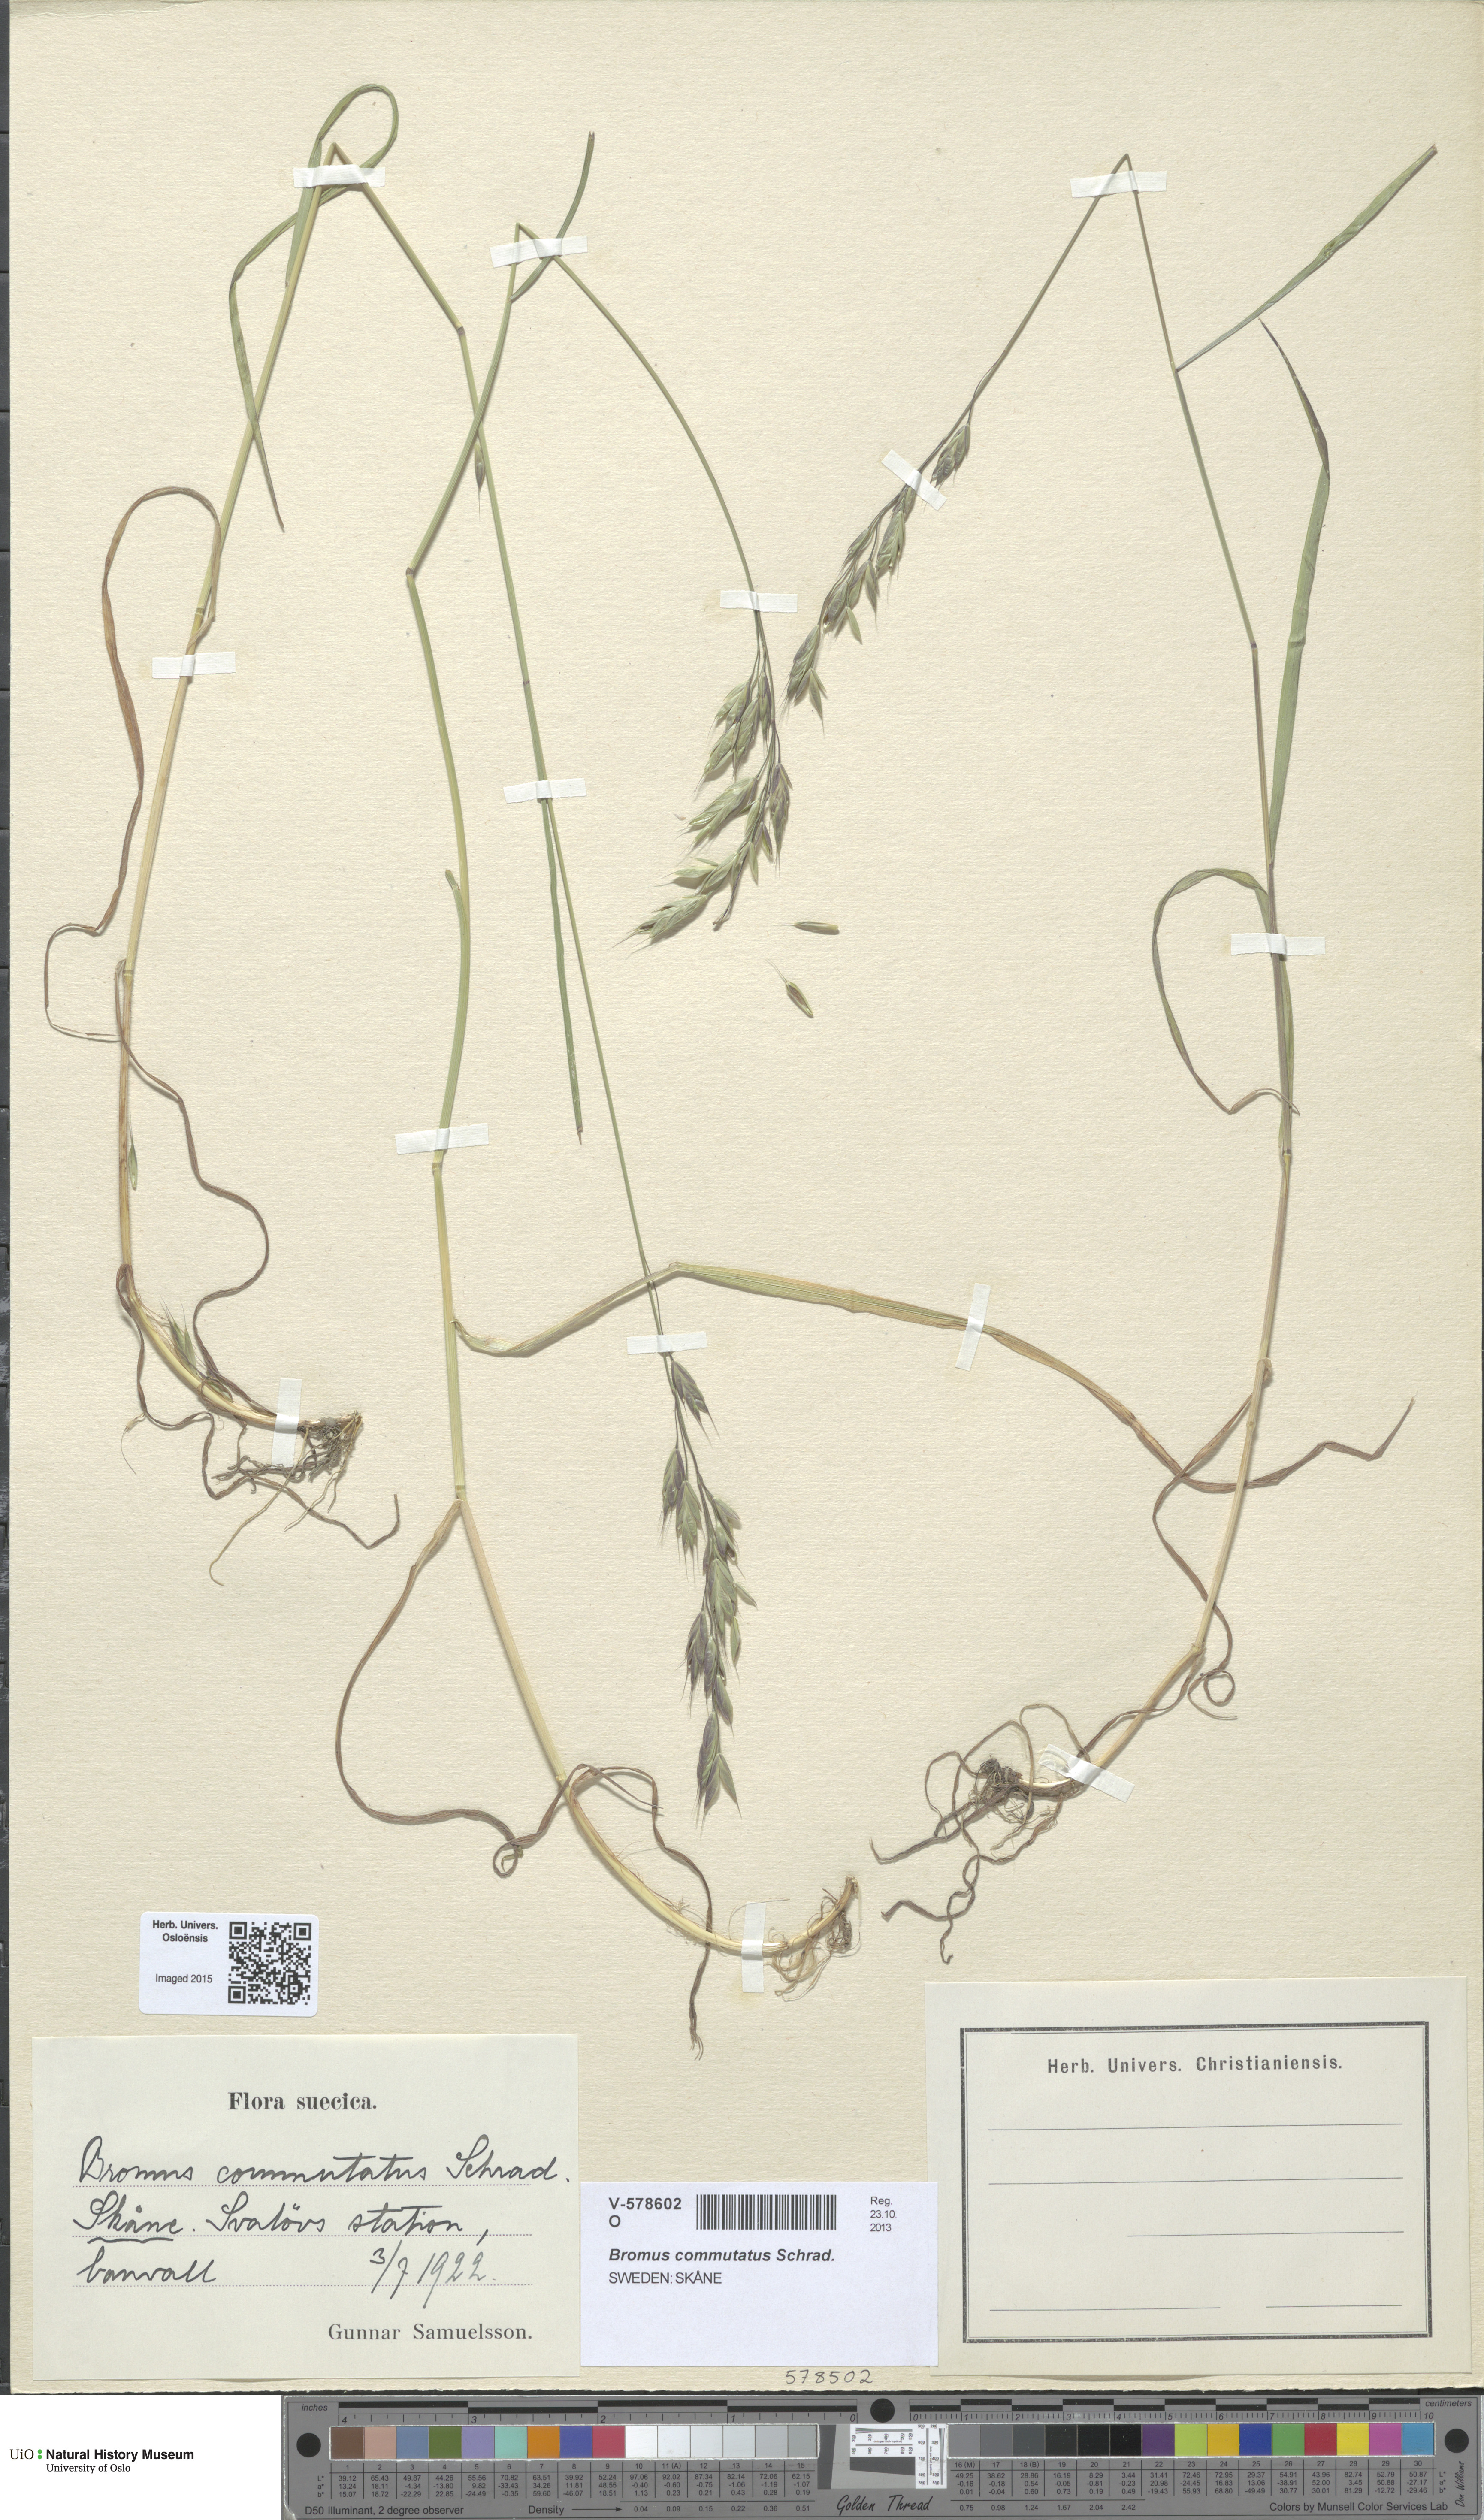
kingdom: Plantae
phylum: Tracheophyta
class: Liliopsida
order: Poales
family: Poaceae
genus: Bromus
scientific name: Bromus commutatus
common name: Meadow brome
